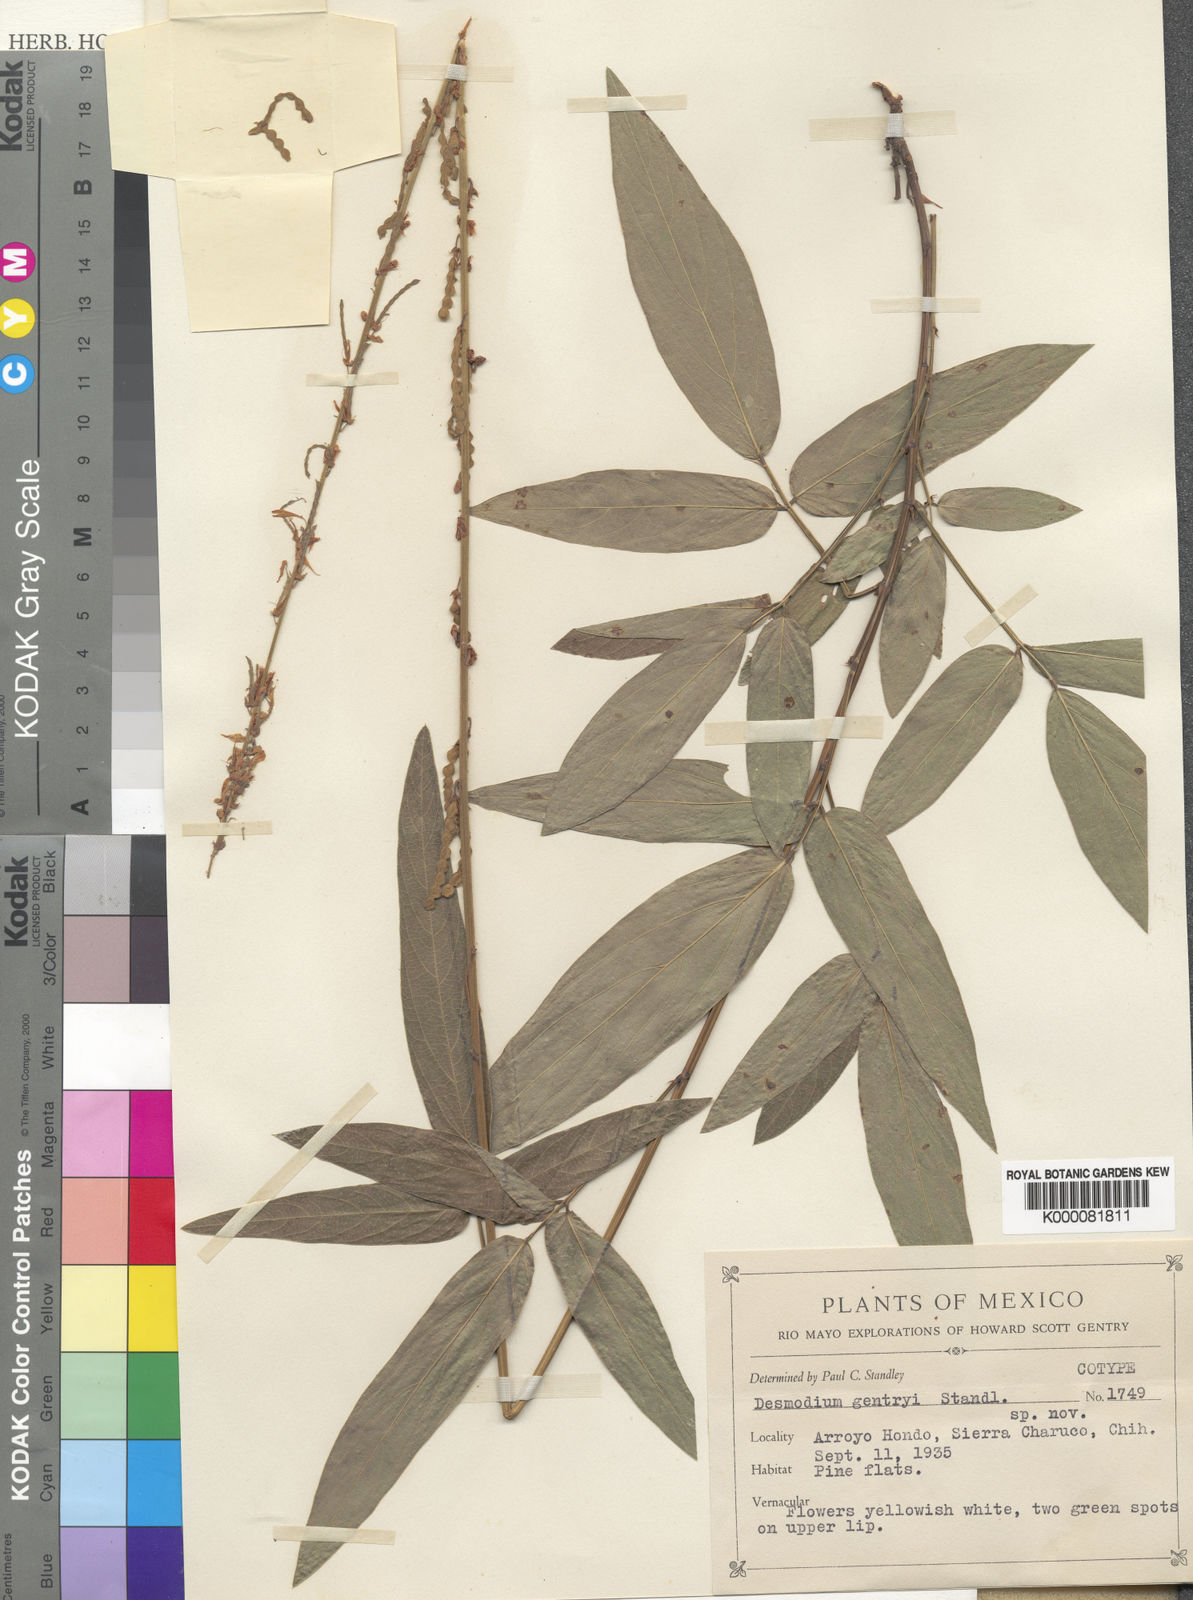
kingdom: Plantae
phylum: Tracheophyta
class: Magnoliopsida
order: Fabales
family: Fabaceae
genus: Desmodium
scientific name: Desmodium macrostachyum
